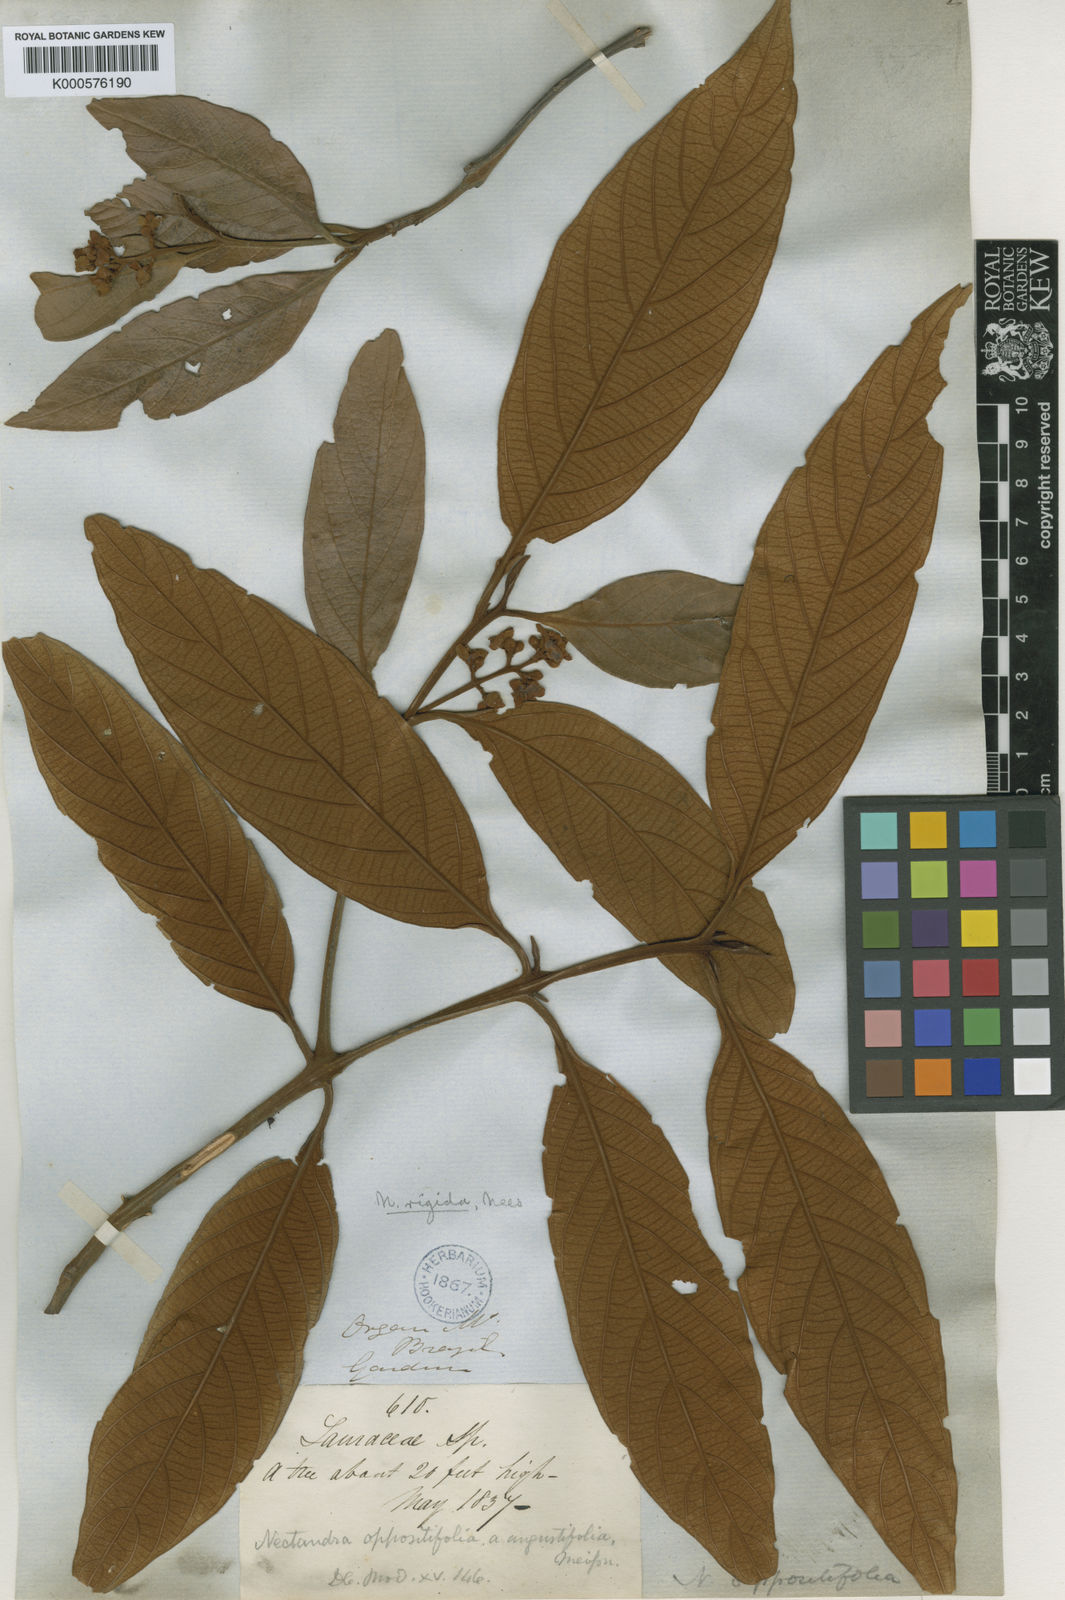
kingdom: Plantae
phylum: Tracheophyta
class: Magnoliopsida
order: Laurales
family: Lauraceae
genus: Nectandra
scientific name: Nectandra oppositifolia
